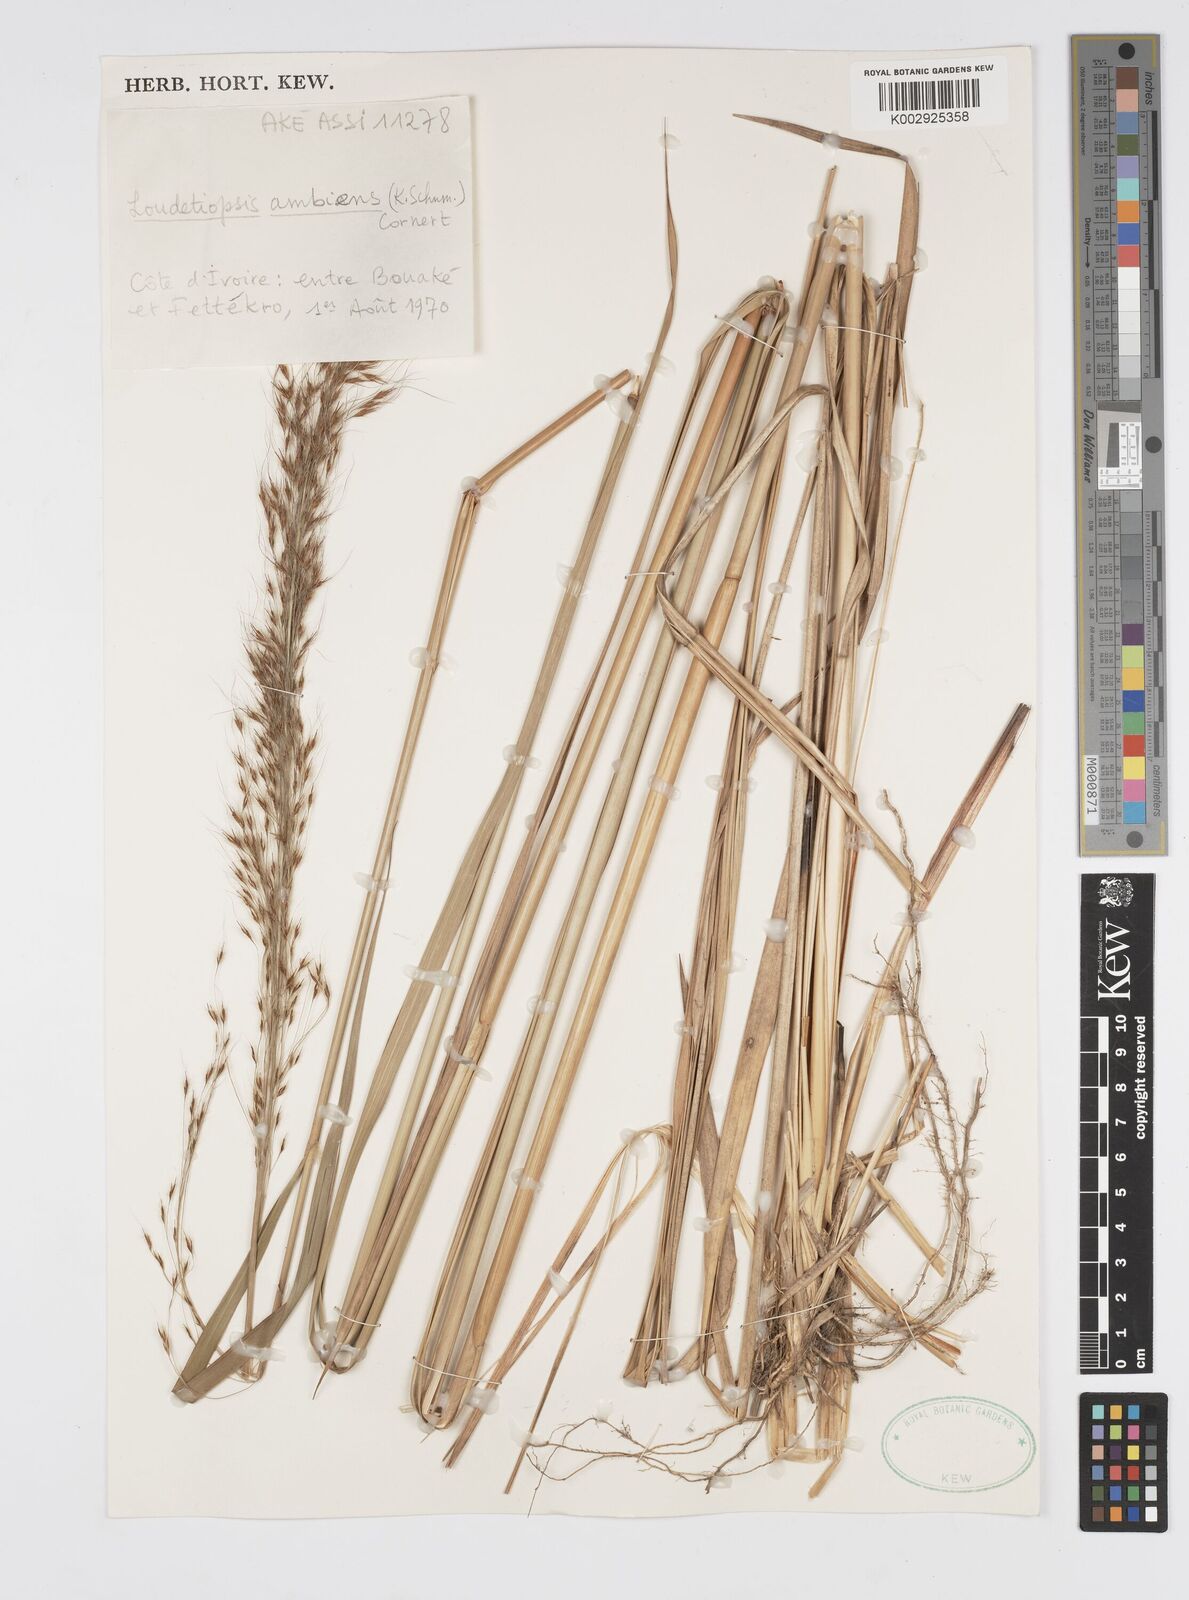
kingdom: Plantae
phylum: Tracheophyta
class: Liliopsida
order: Poales
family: Poaceae
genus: Loudetiopsis
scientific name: Loudetiopsis ambiens
